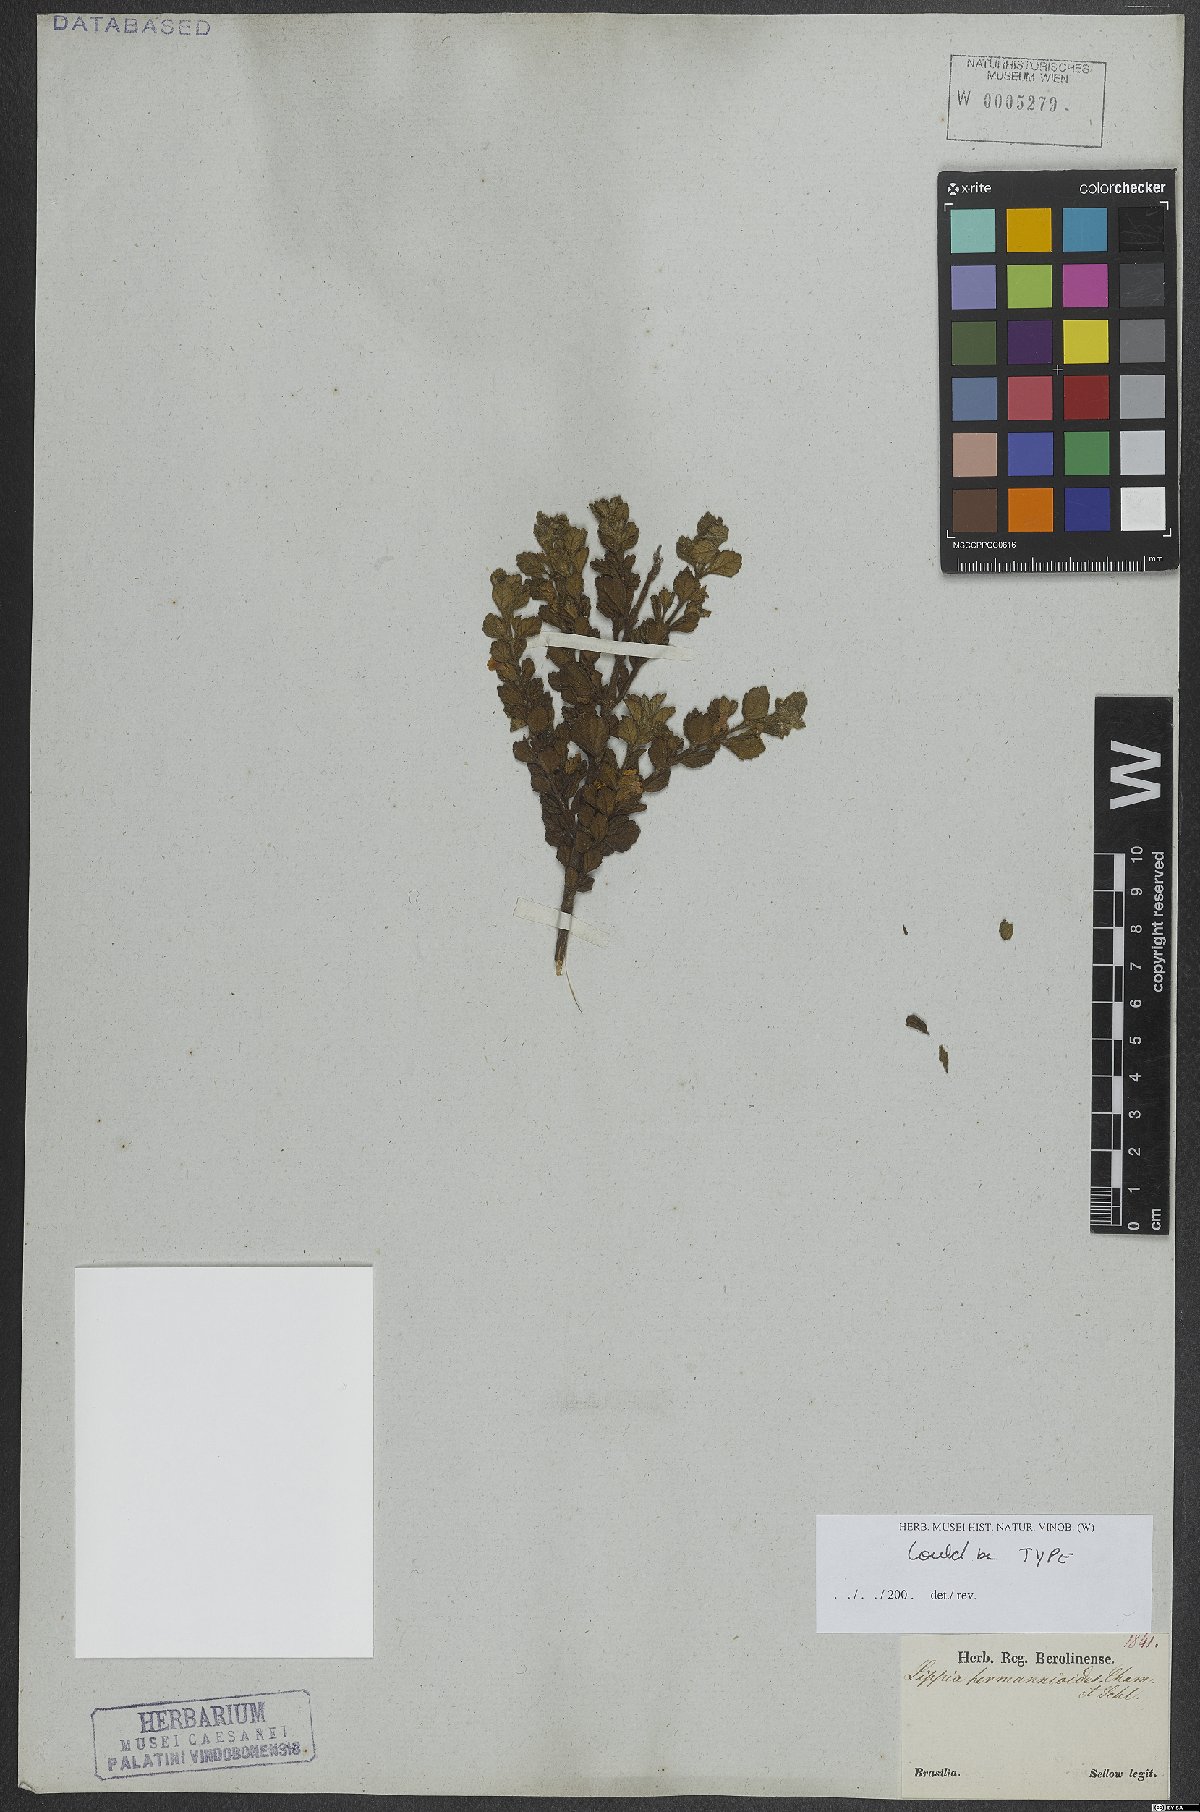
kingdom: Plantae
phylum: Tracheophyta
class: Magnoliopsida
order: Lamiales
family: Verbenaceae
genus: Lippia
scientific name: Lippia hermannioides
